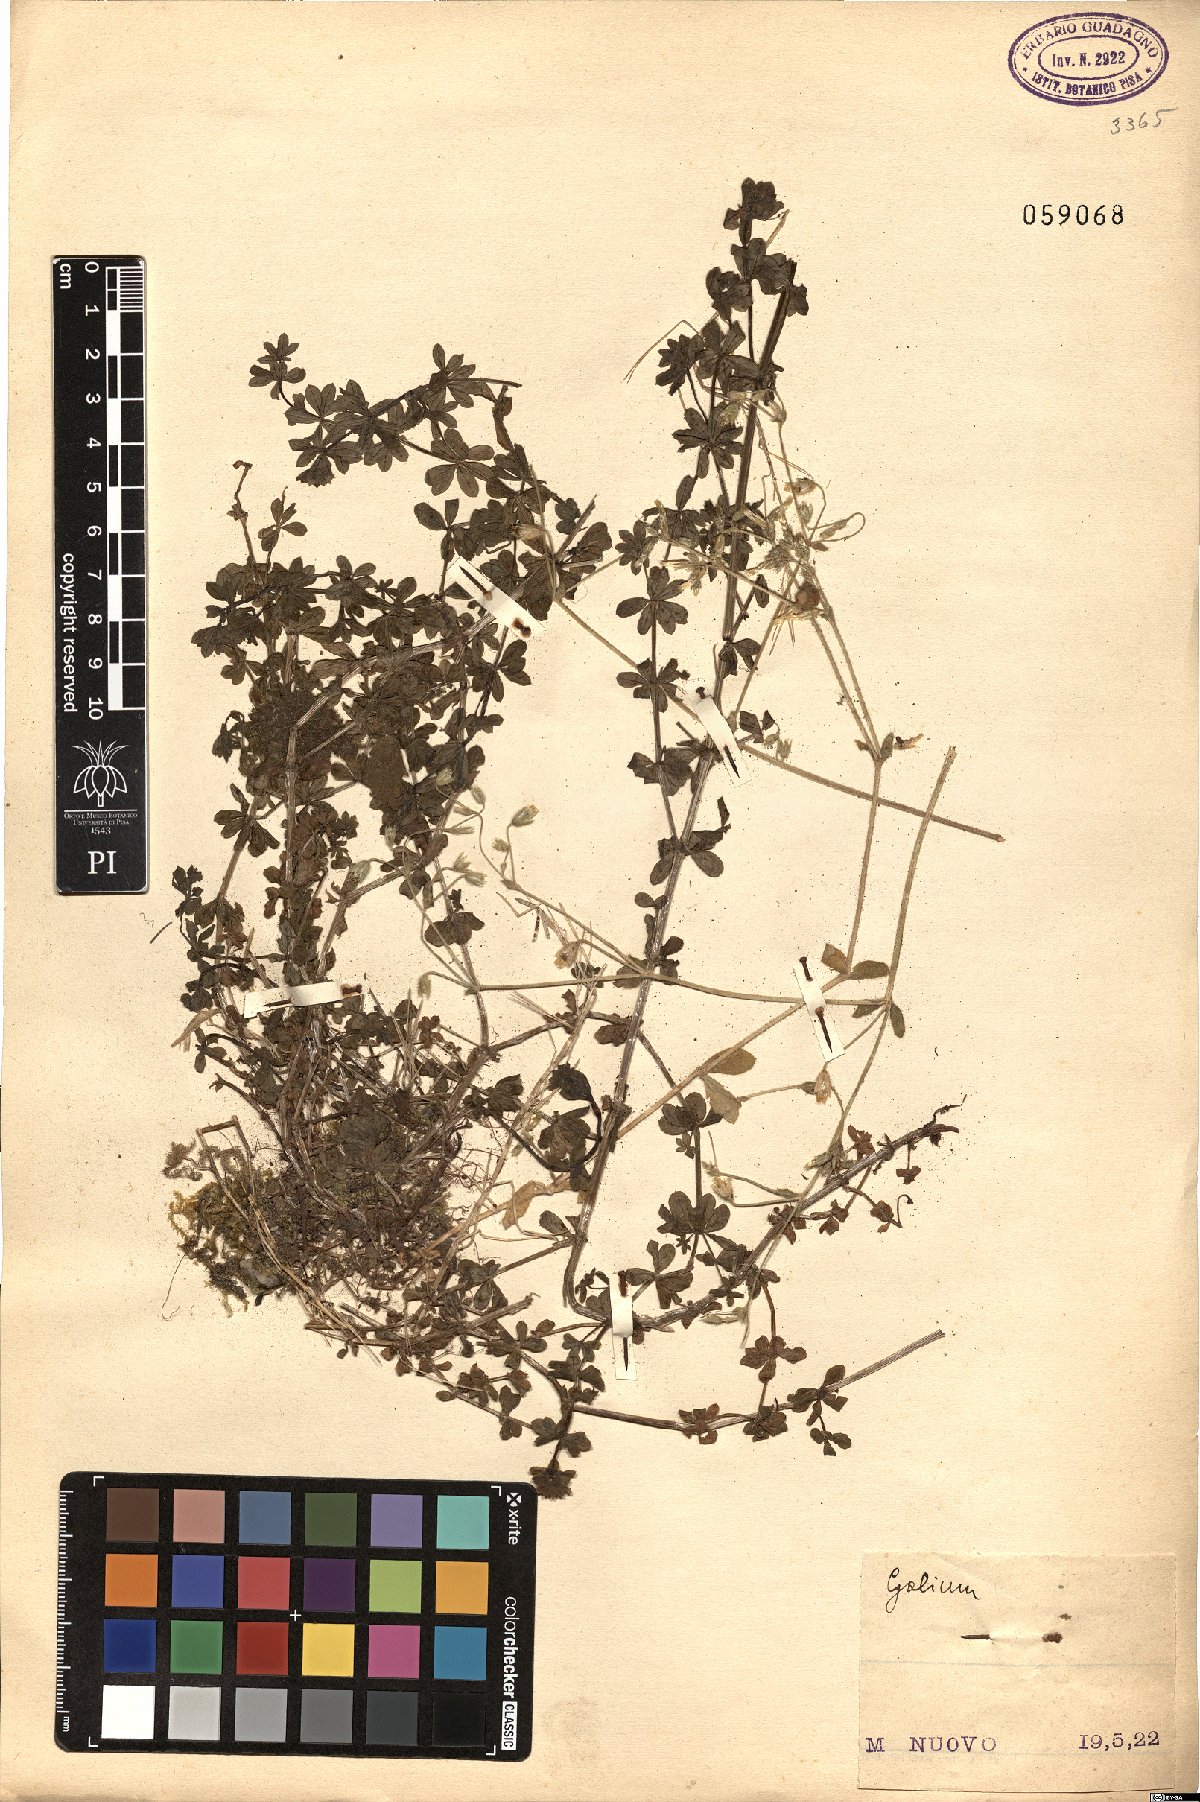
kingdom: Plantae
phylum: Tracheophyta
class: Magnoliopsida
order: Gentianales
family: Rubiaceae
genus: Galium
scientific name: Galium
